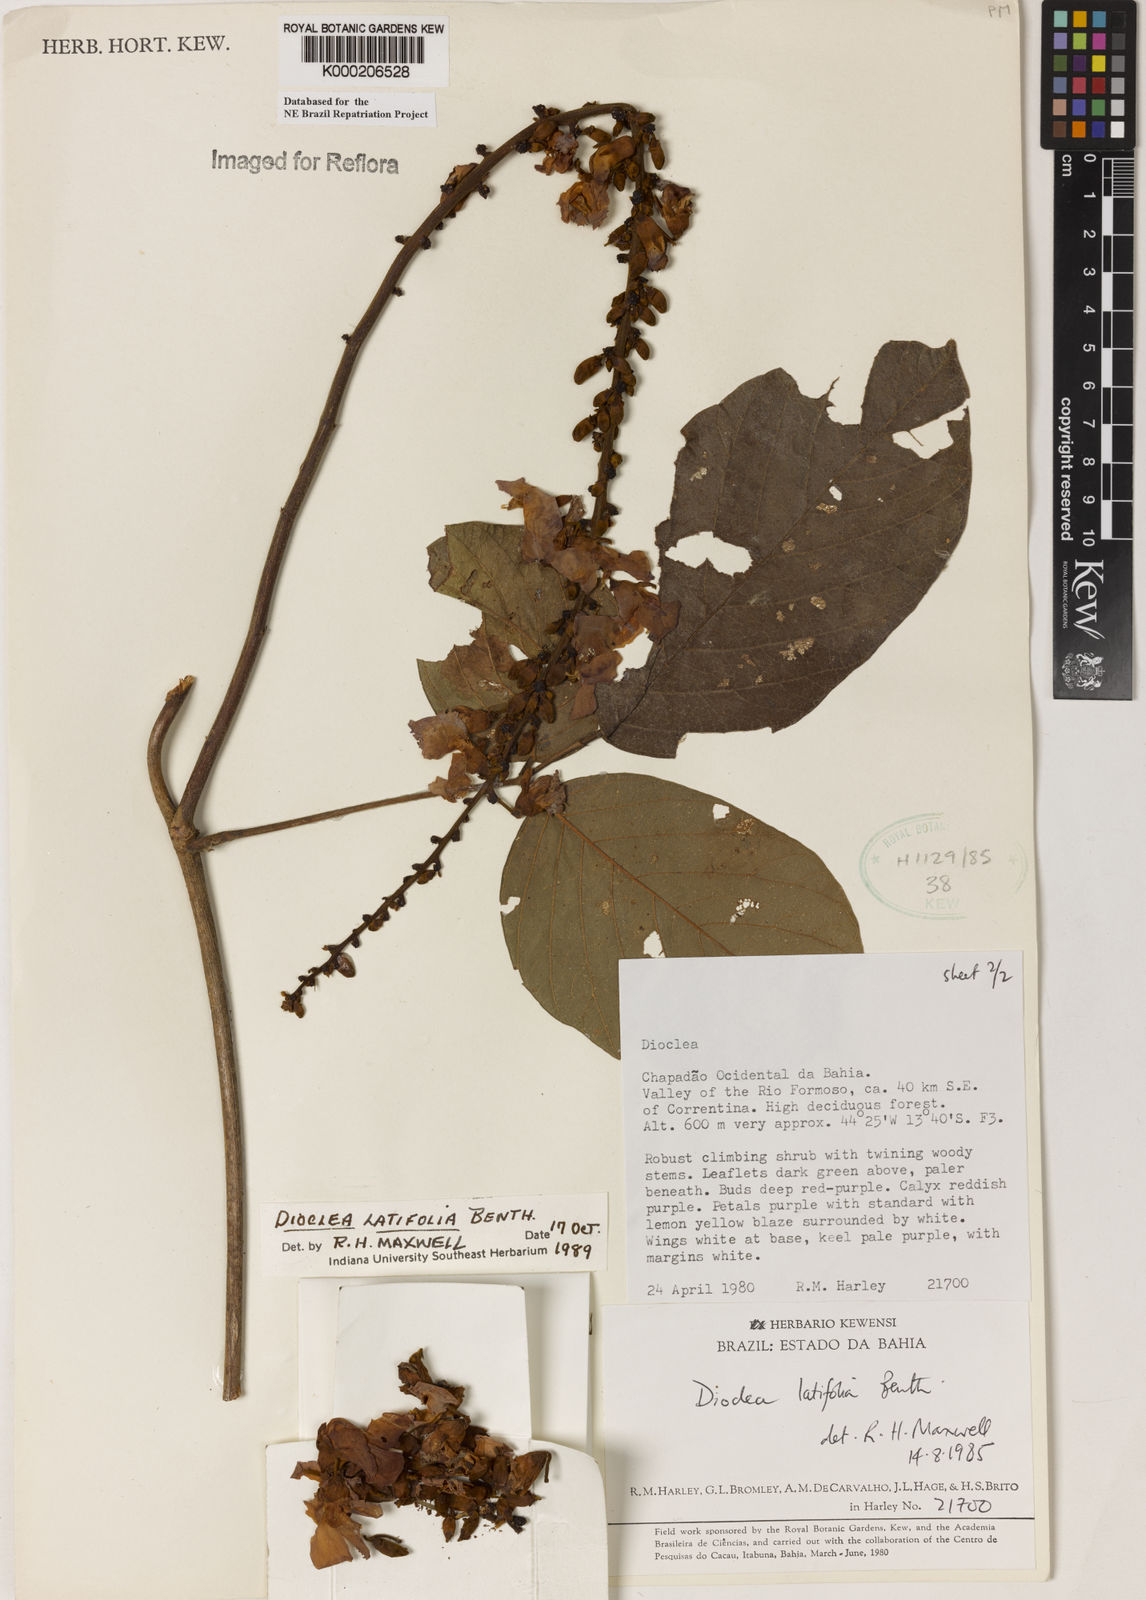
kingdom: Plantae
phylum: Tracheophyta
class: Magnoliopsida
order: Fabales
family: Fabaceae
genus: Macropsychanthus
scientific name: Macropsychanthus latifolius
